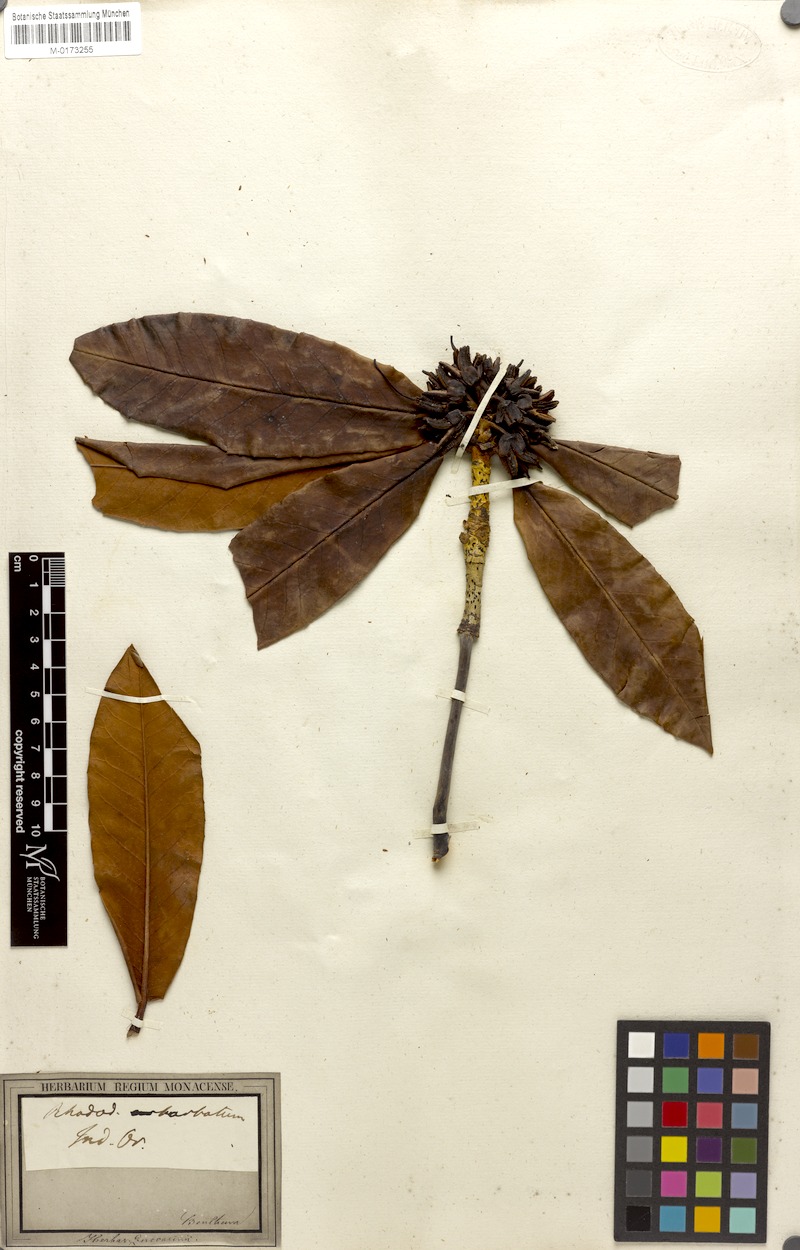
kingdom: Plantae
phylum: Tracheophyta
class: Magnoliopsida
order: Ericales
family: Ericaceae
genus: Rhododendron
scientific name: Rhododendron barbatum
